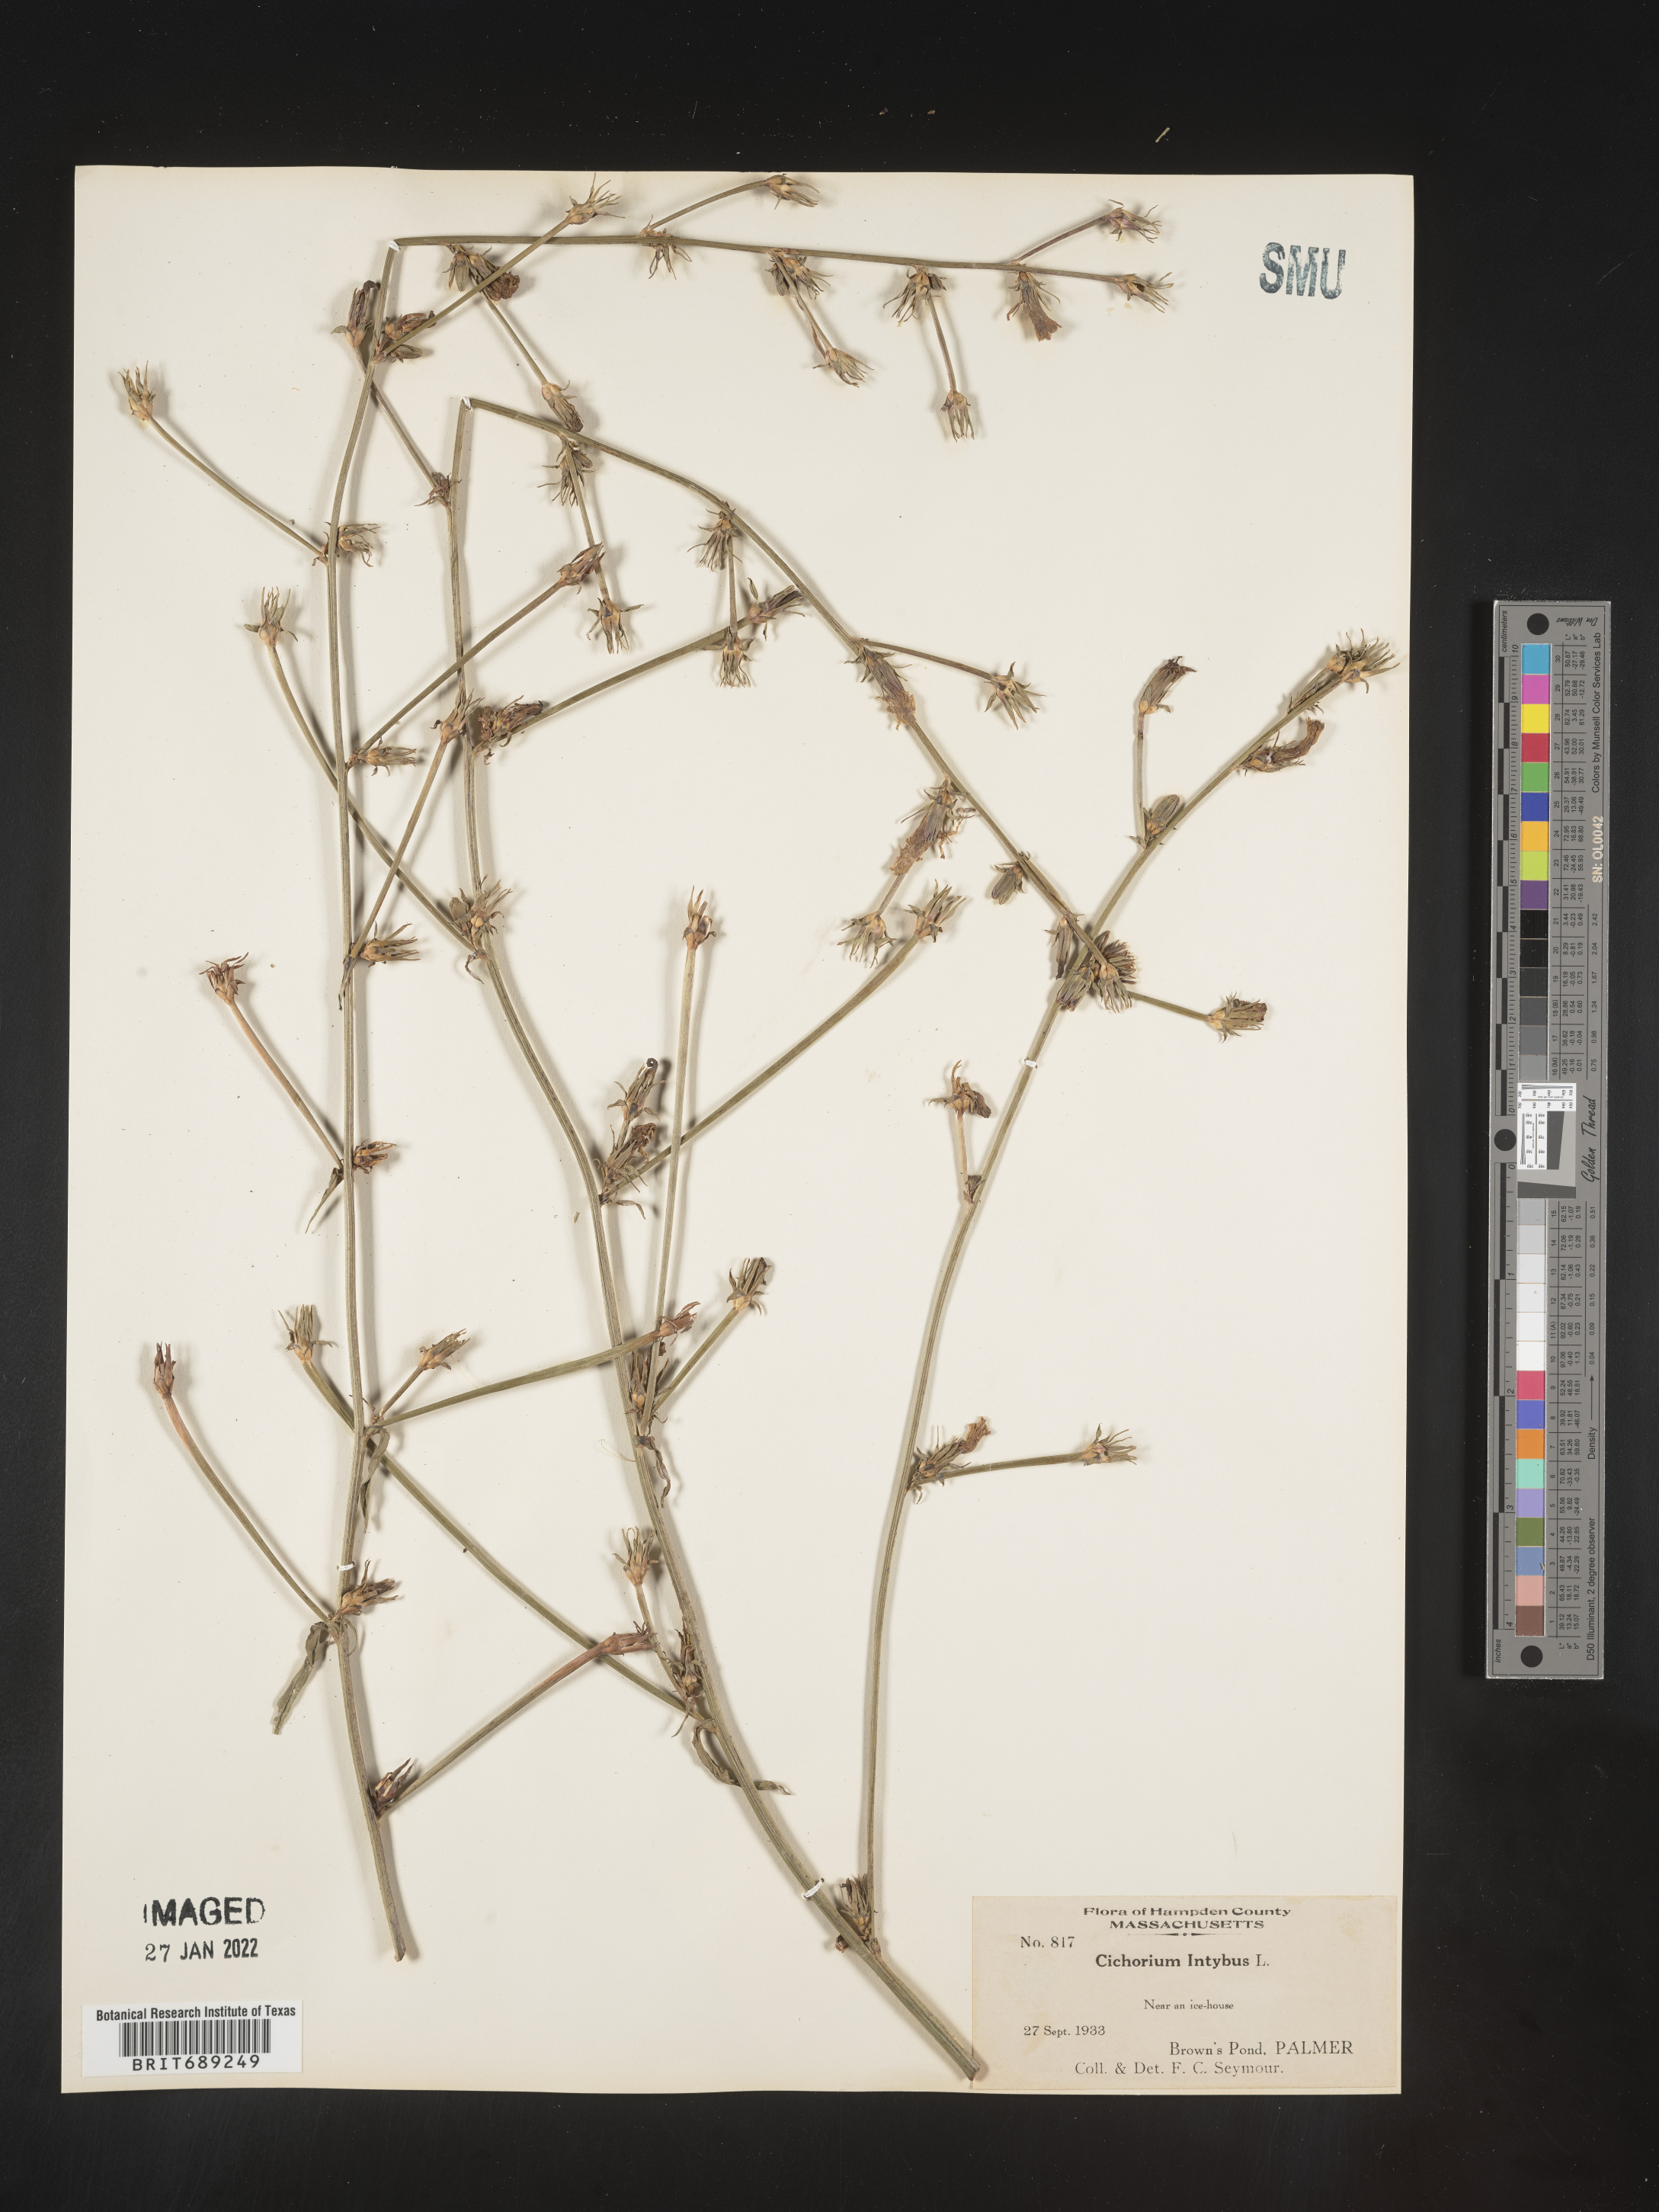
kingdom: Plantae
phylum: Tracheophyta
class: Magnoliopsida
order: Asterales
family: Asteraceae
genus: Cichorium
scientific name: Cichorium intybus
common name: Chicory
